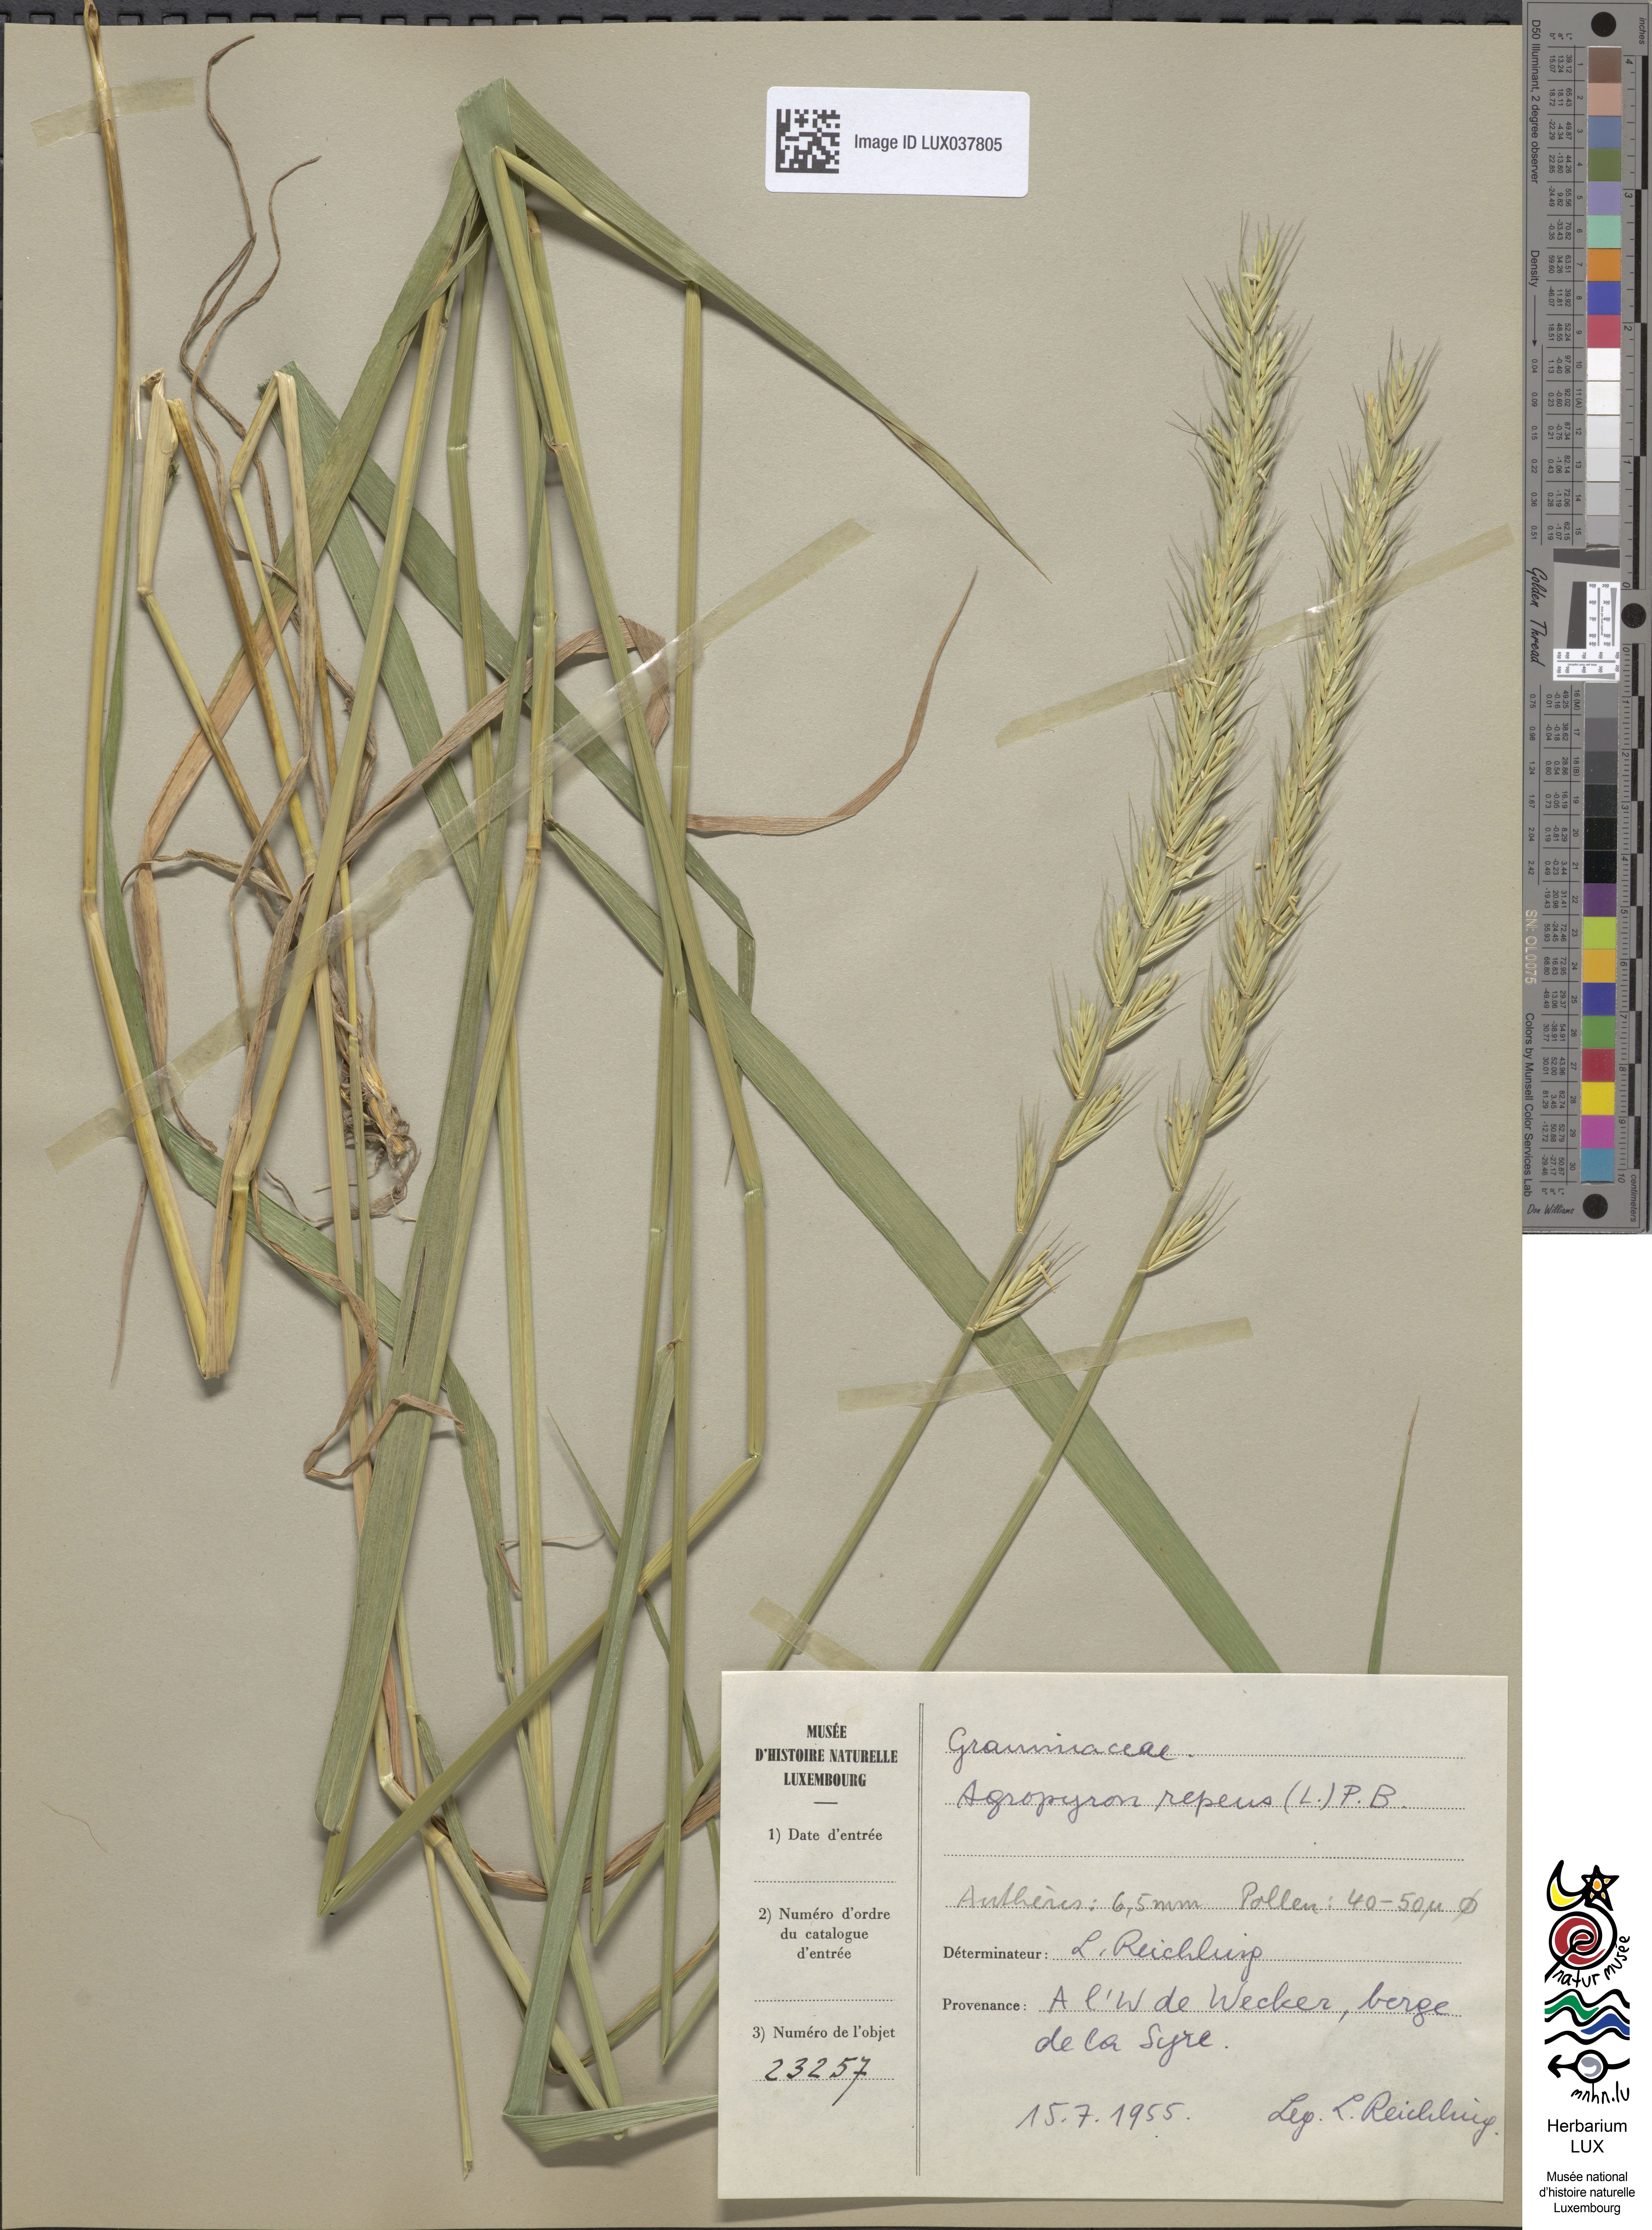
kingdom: Plantae
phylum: Tracheophyta
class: Liliopsida
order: Poales
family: Poaceae
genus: Elymus
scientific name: Elymus repens
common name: Quackgrass
